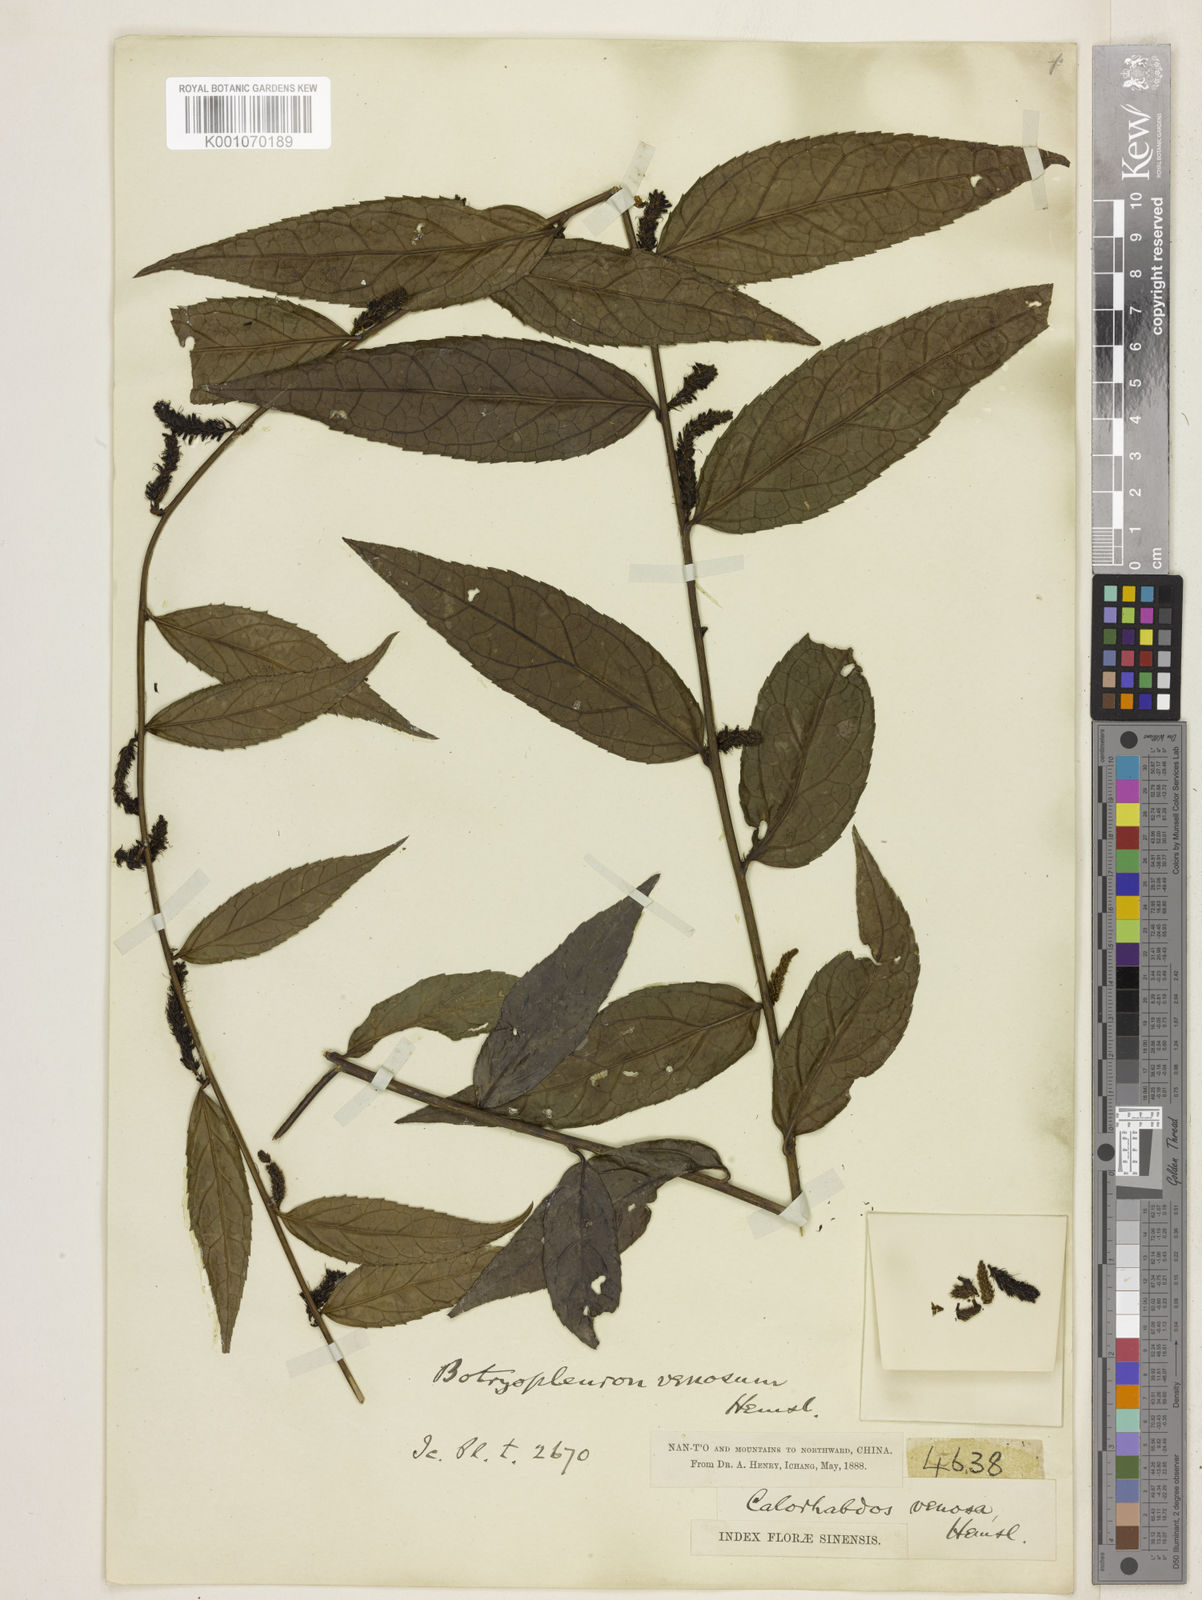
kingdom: Plantae
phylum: Tracheophyta
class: Magnoliopsida
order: Lamiales
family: Plantaginaceae
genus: Veronicastrum
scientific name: Veronicastrum stenostachyum
